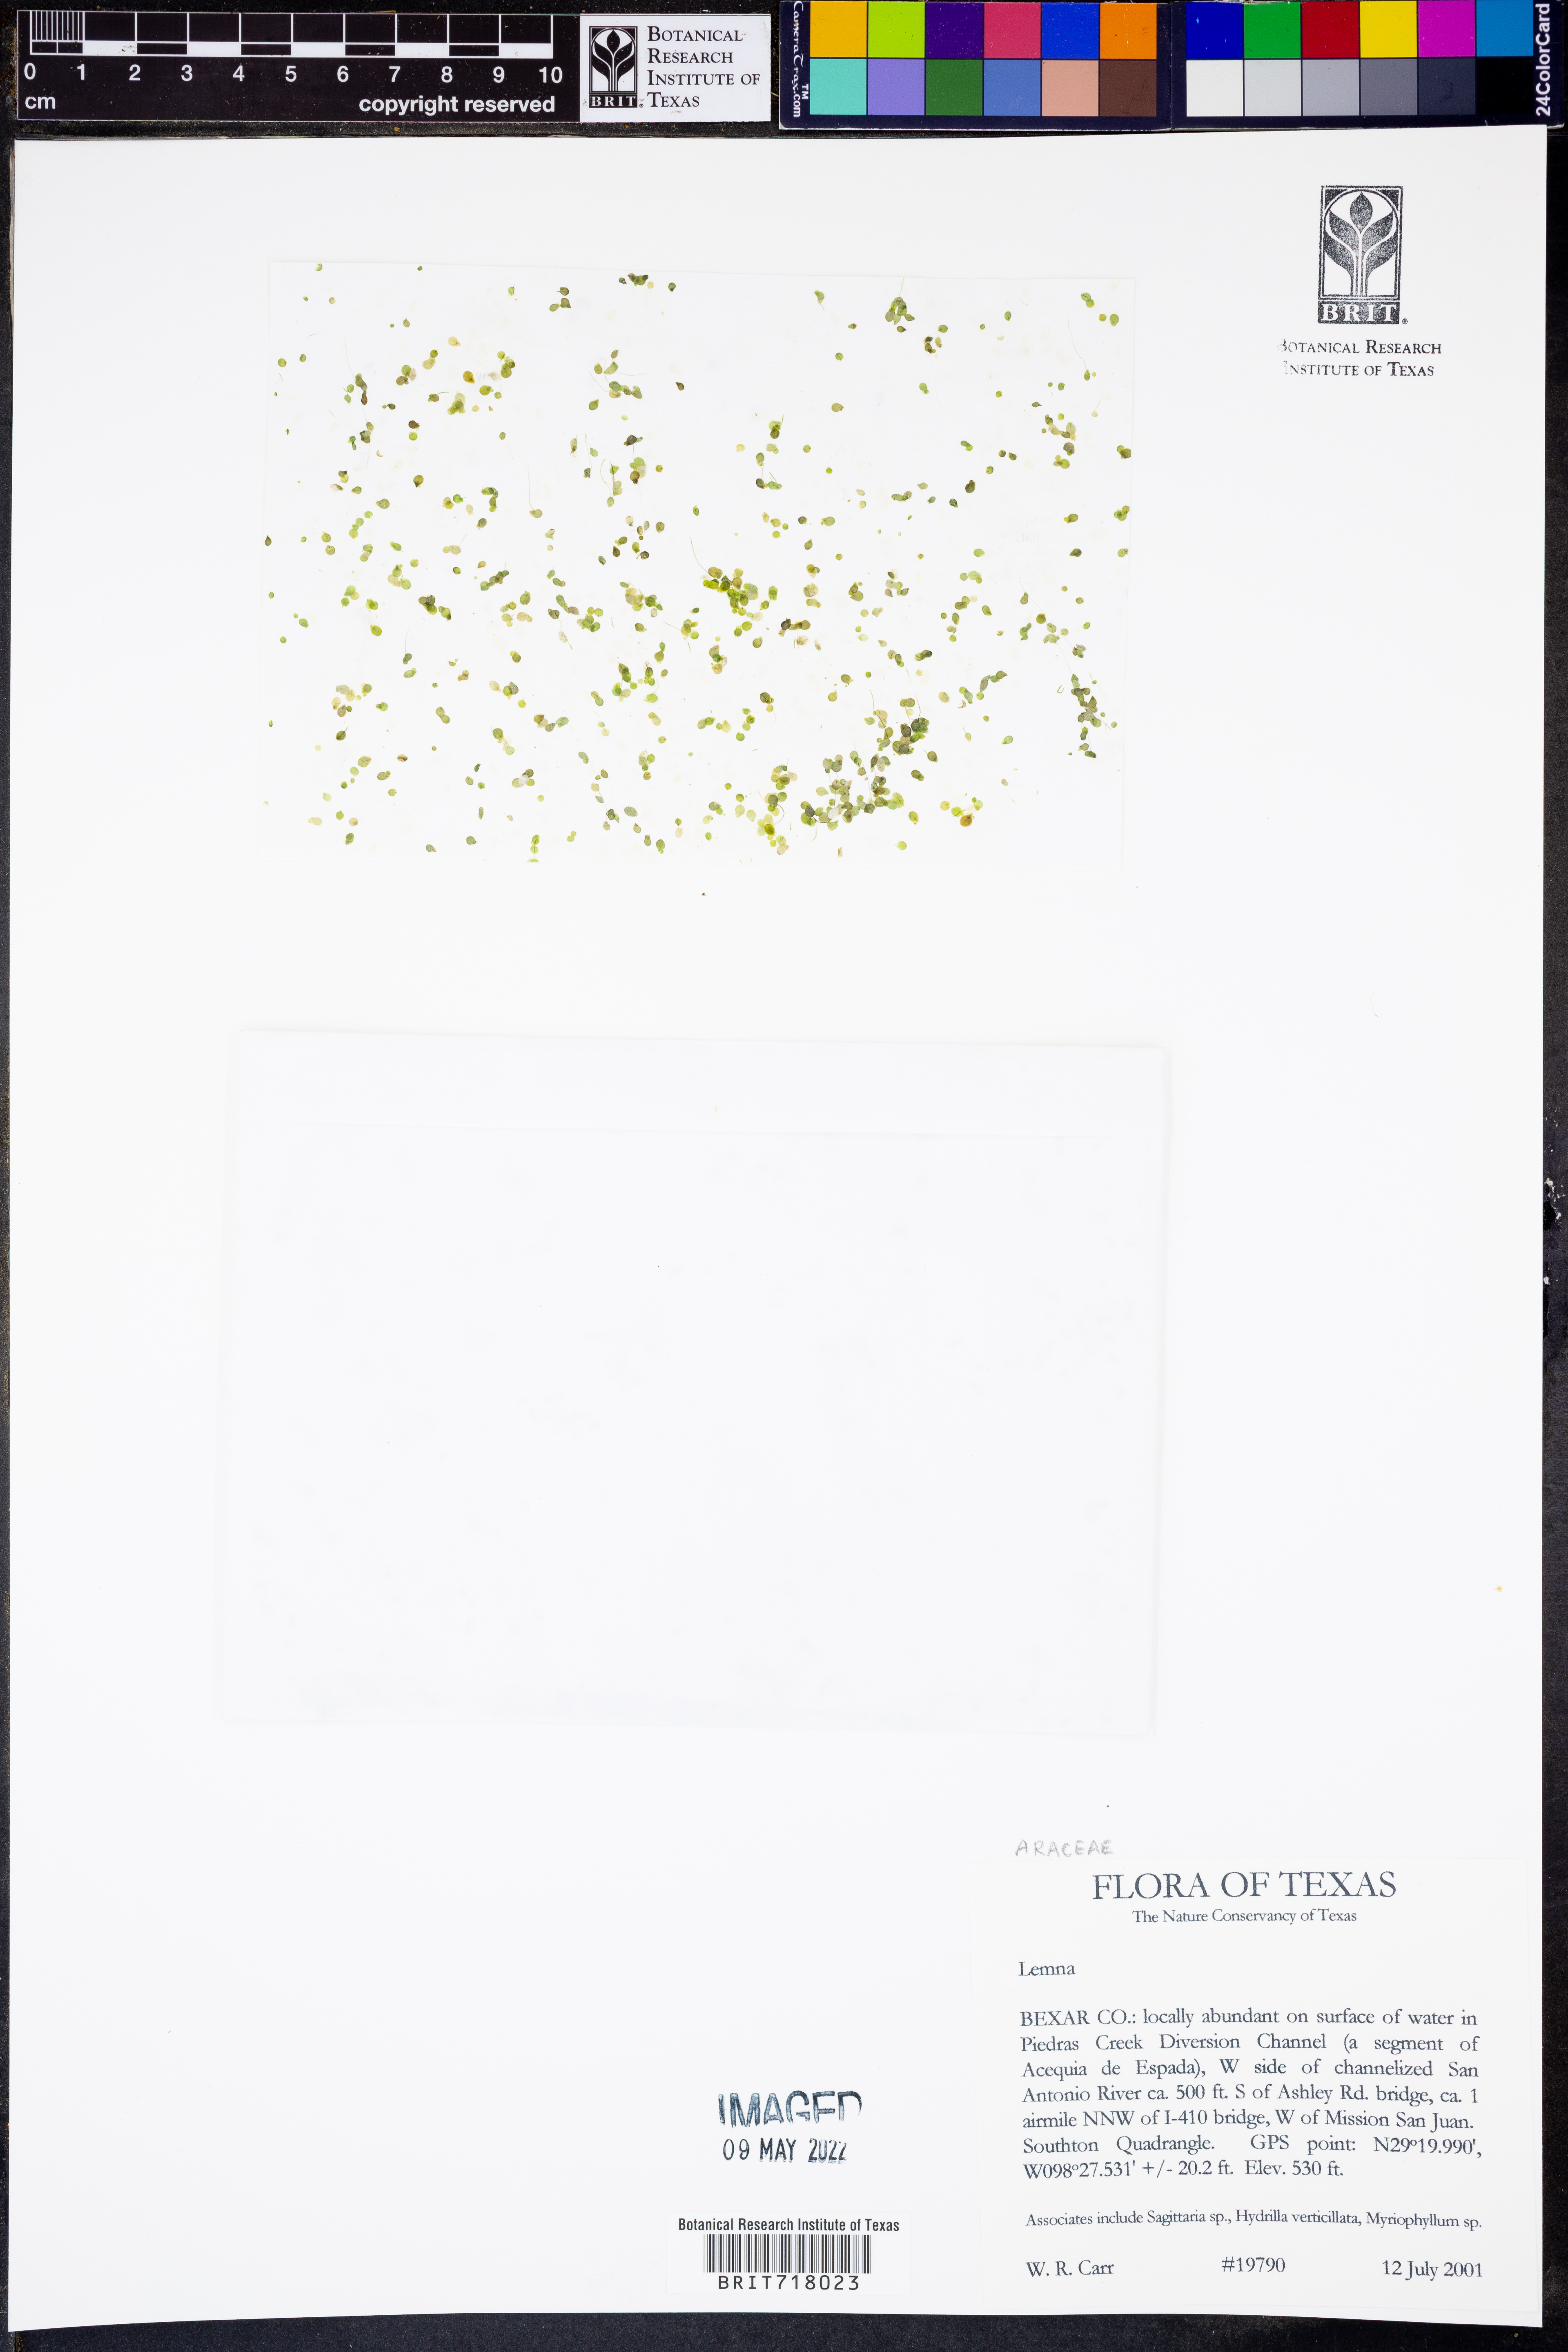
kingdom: Plantae
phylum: Tracheophyta
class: Liliopsida
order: Alismatales
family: Araceae
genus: Lemna
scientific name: Lemna aequinoctialis
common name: Duckweed
